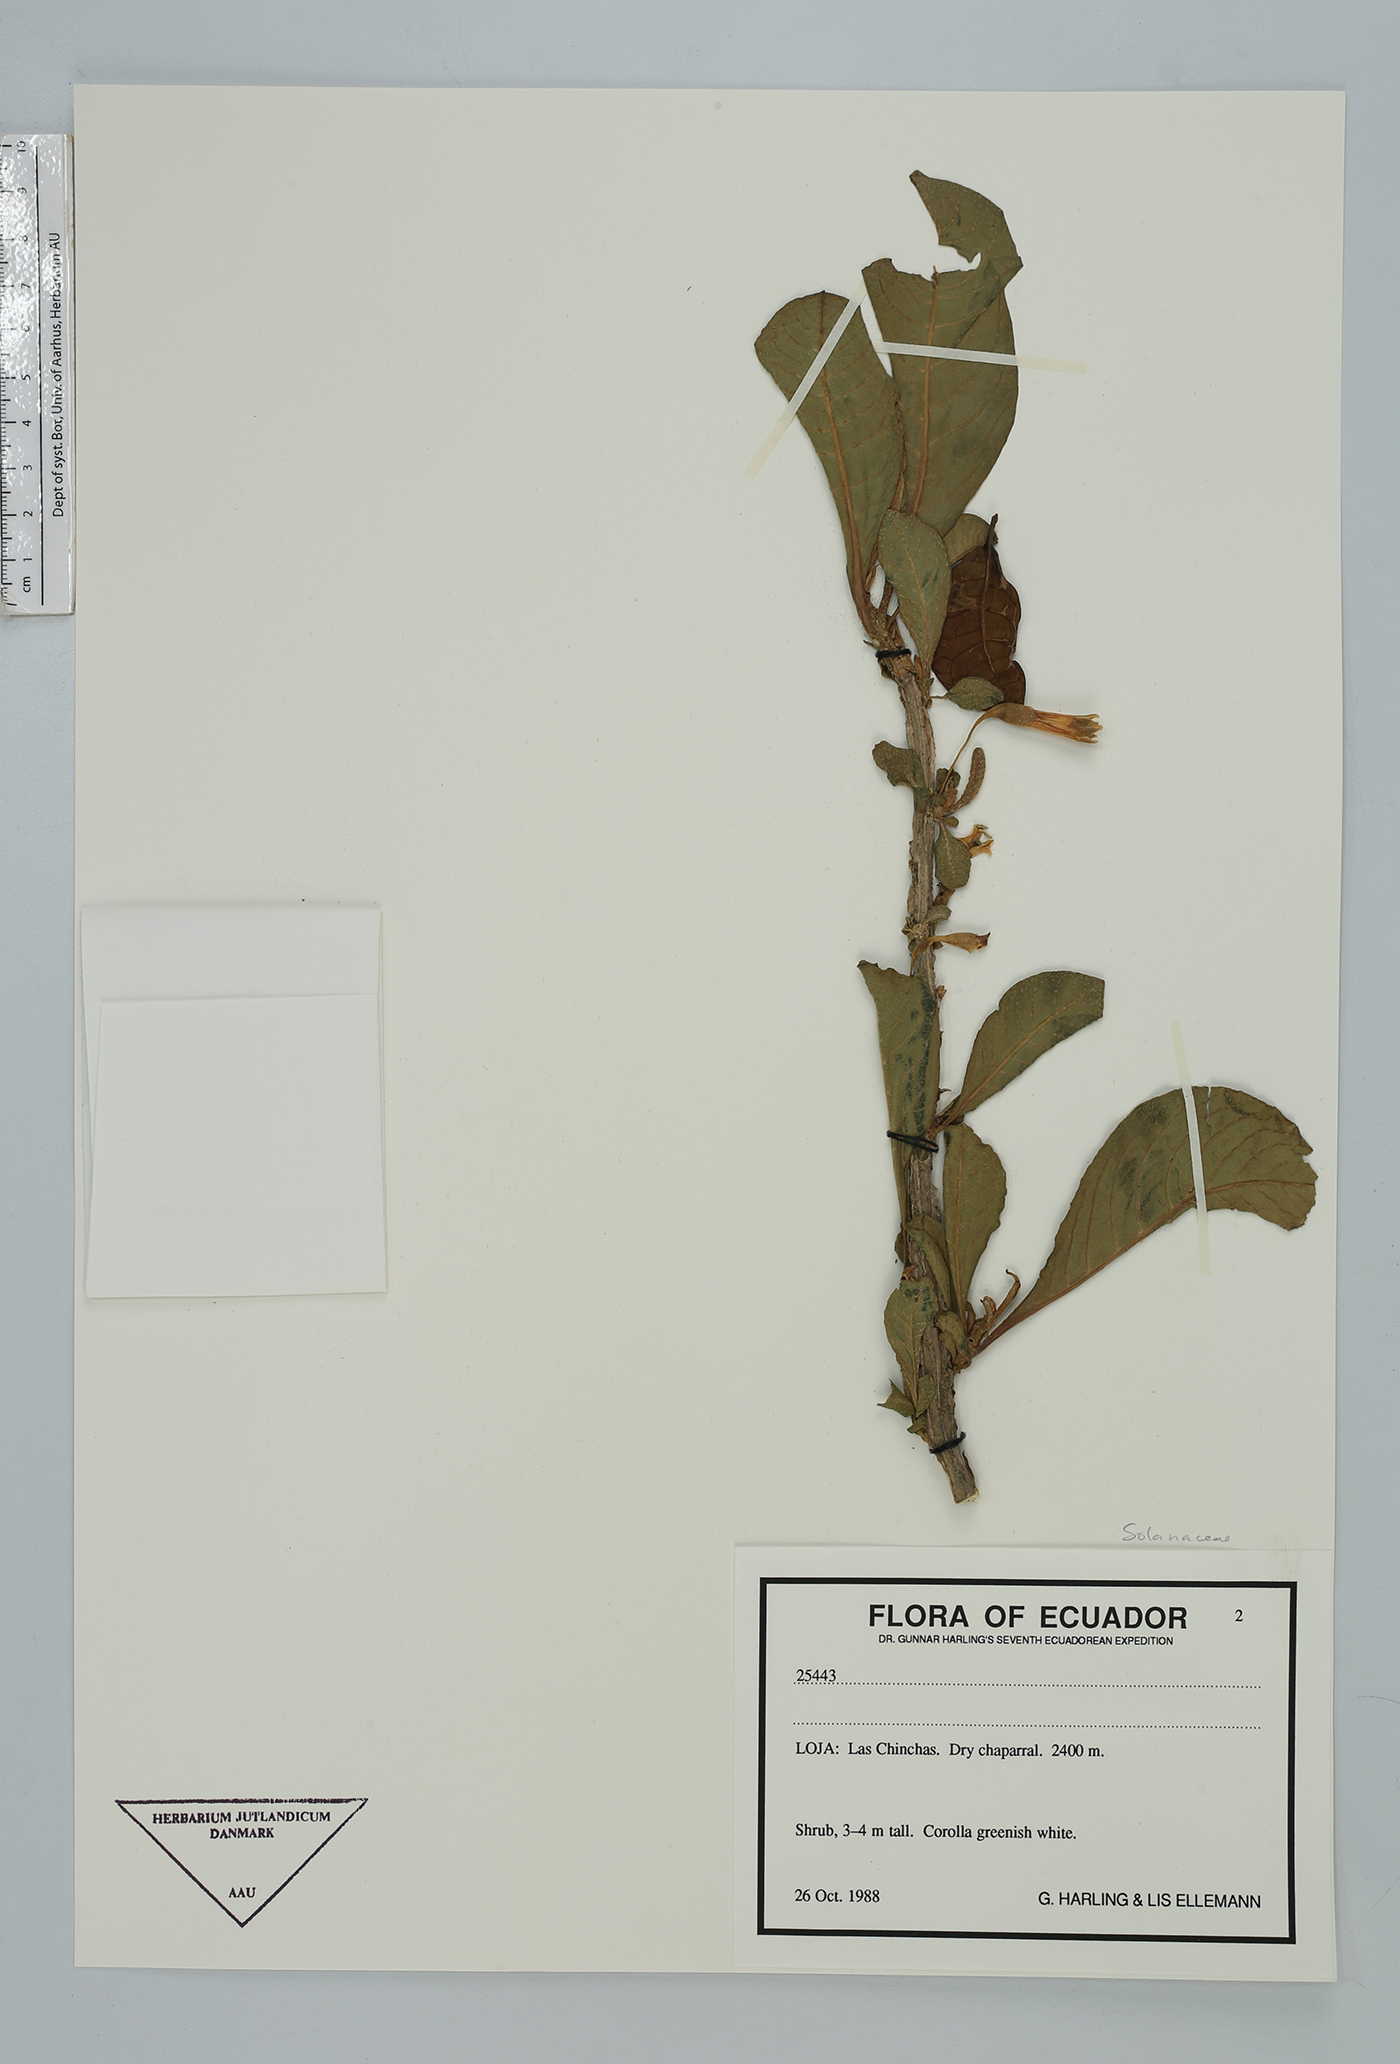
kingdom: Plantae
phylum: Tracheophyta
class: Magnoliopsida
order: Solanales
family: Solanaceae
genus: Iochroma
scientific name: Iochroma
